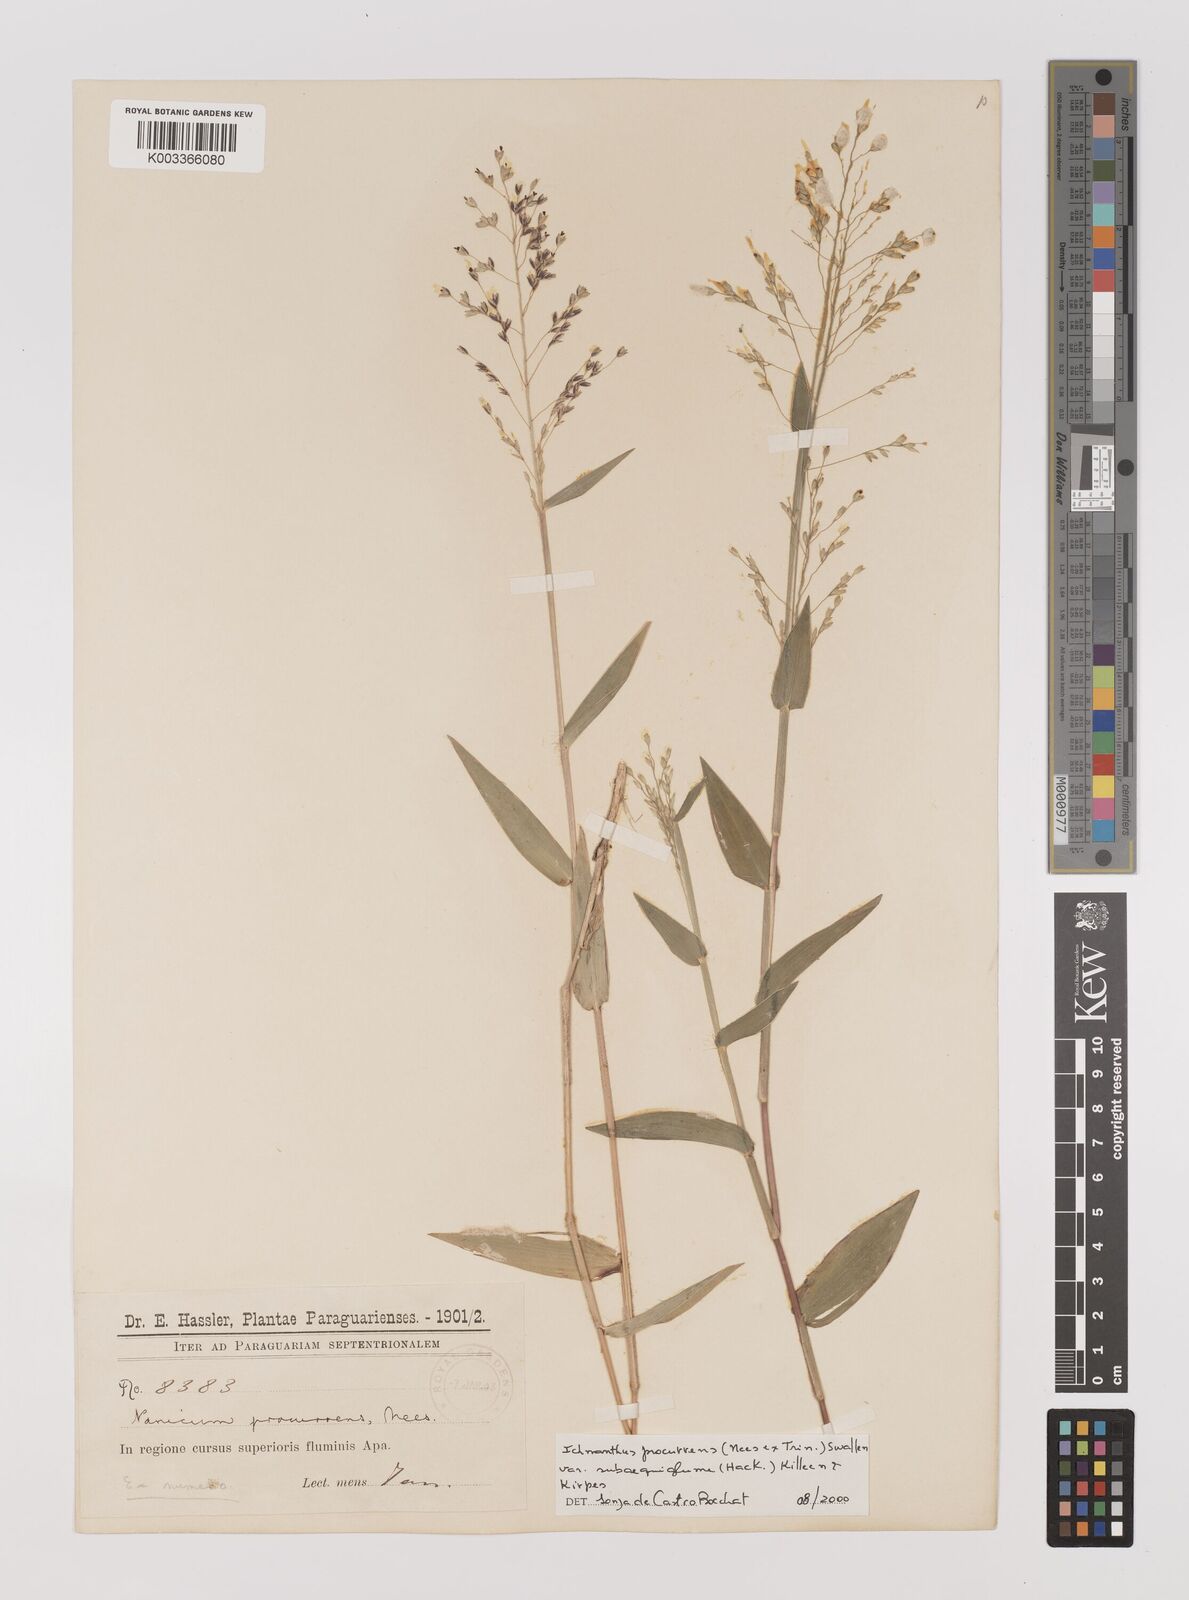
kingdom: Plantae
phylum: Tracheophyta
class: Liliopsida
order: Poales
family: Poaceae
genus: Oedochloa
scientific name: Oedochloa procurrens
